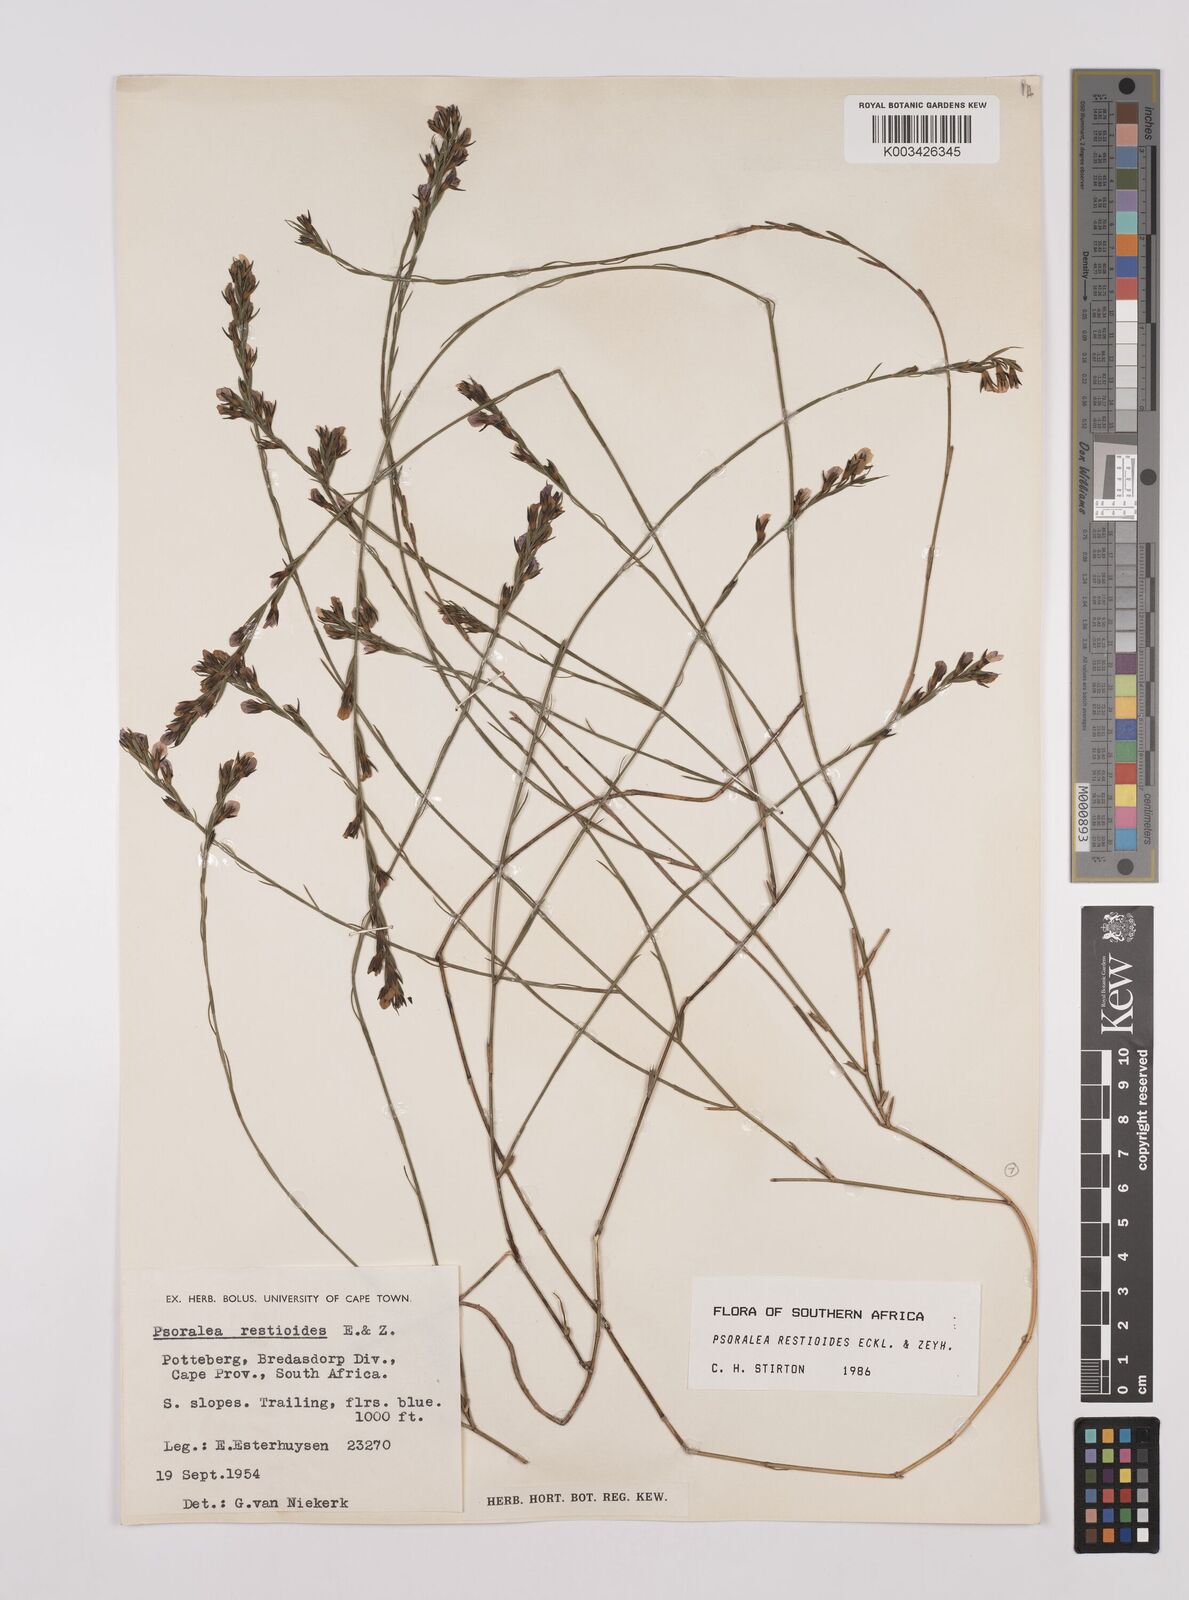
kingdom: Plantae
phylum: Tracheophyta
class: Magnoliopsida
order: Fabales
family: Fabaceae
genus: Psoralea
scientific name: Psoralea restioides
